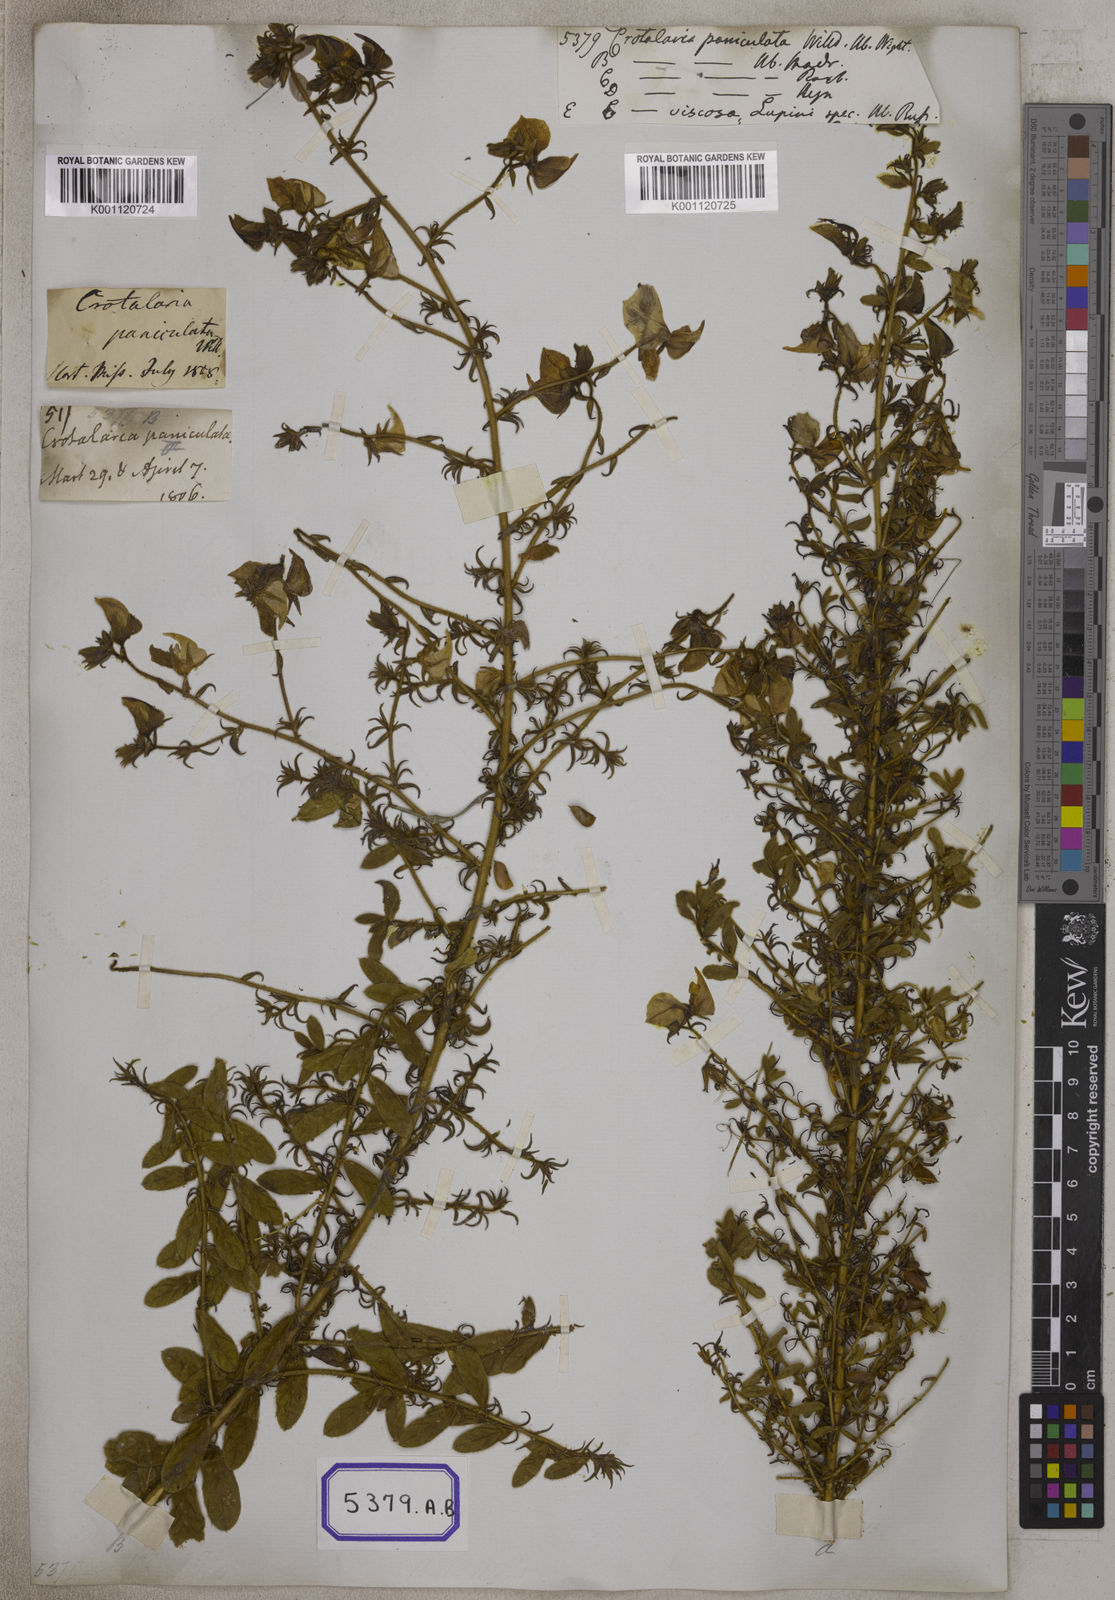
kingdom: Plantae
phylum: Tracheophyta
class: Magnoliopsida
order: Fabales
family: Fabaceae
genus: Crotalaria
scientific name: Crotalaria paniculata
